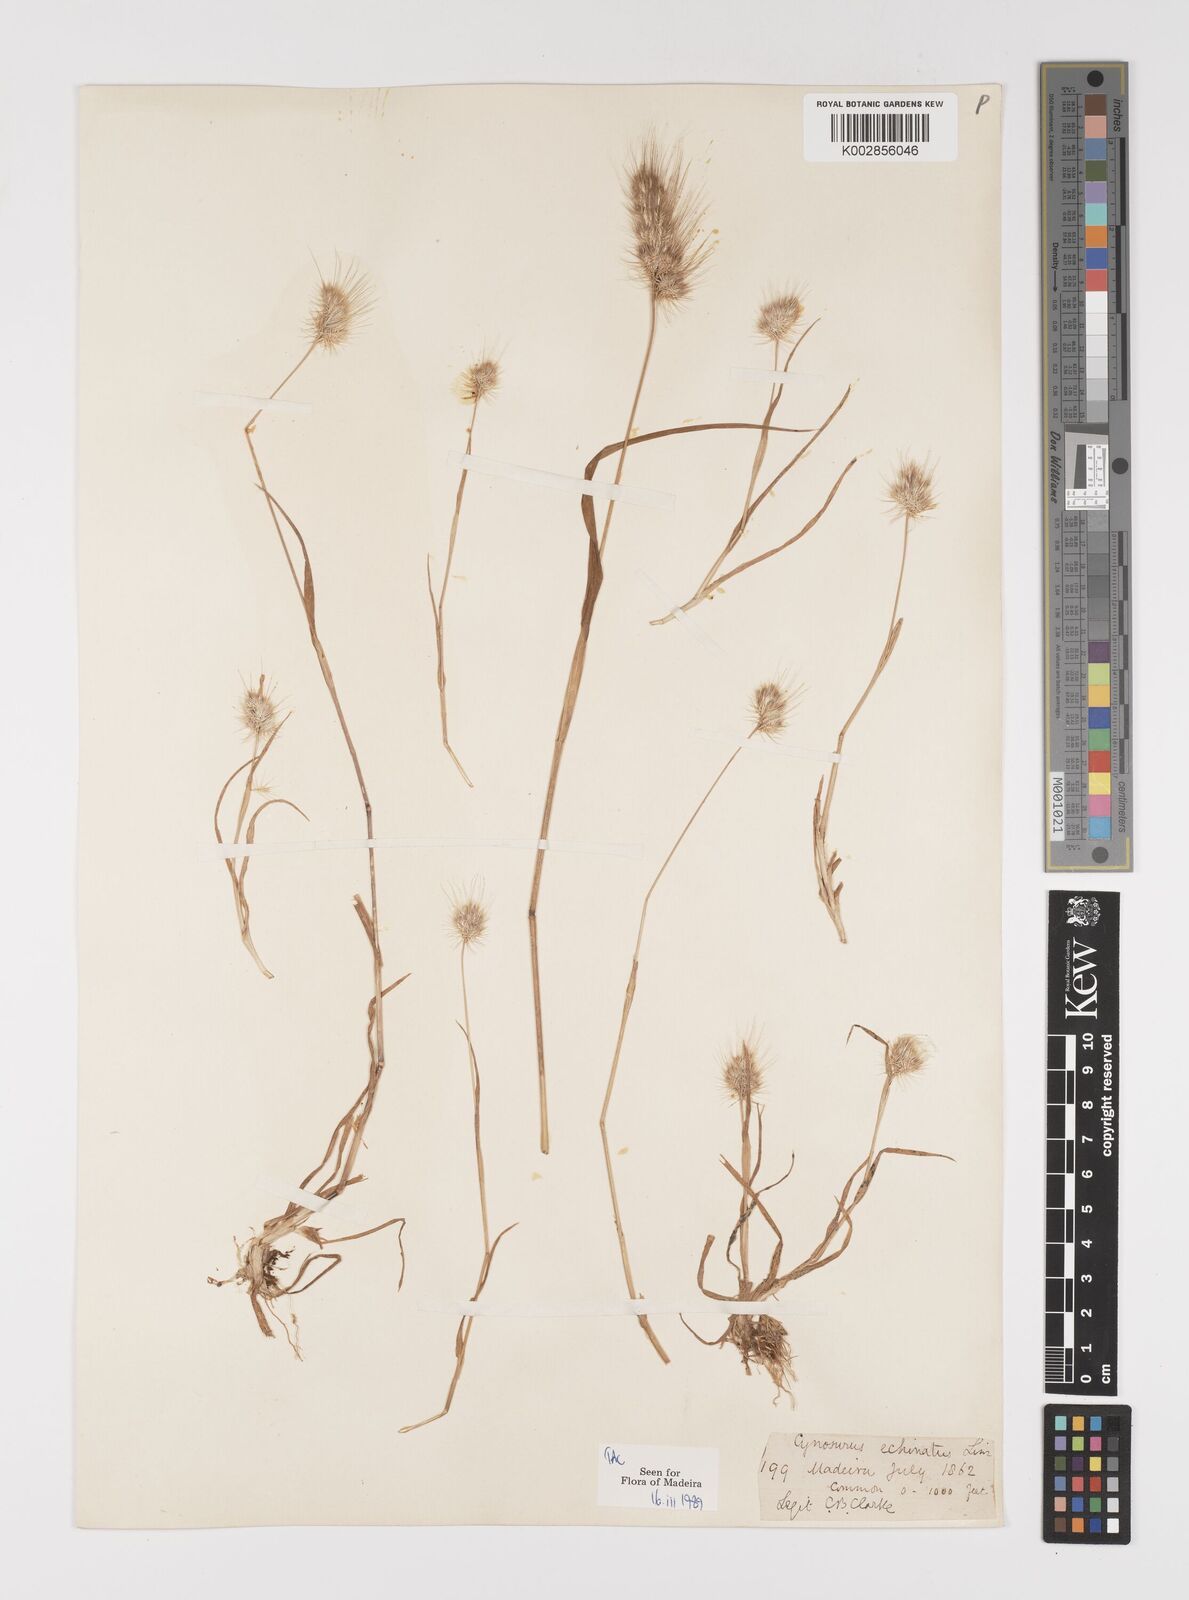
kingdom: Plantae
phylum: Tracheophyta
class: Liliopsida
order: Poales
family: Poaceae
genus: Cynosurus
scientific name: Cynosurus echinatus
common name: Rough dog's-tail
